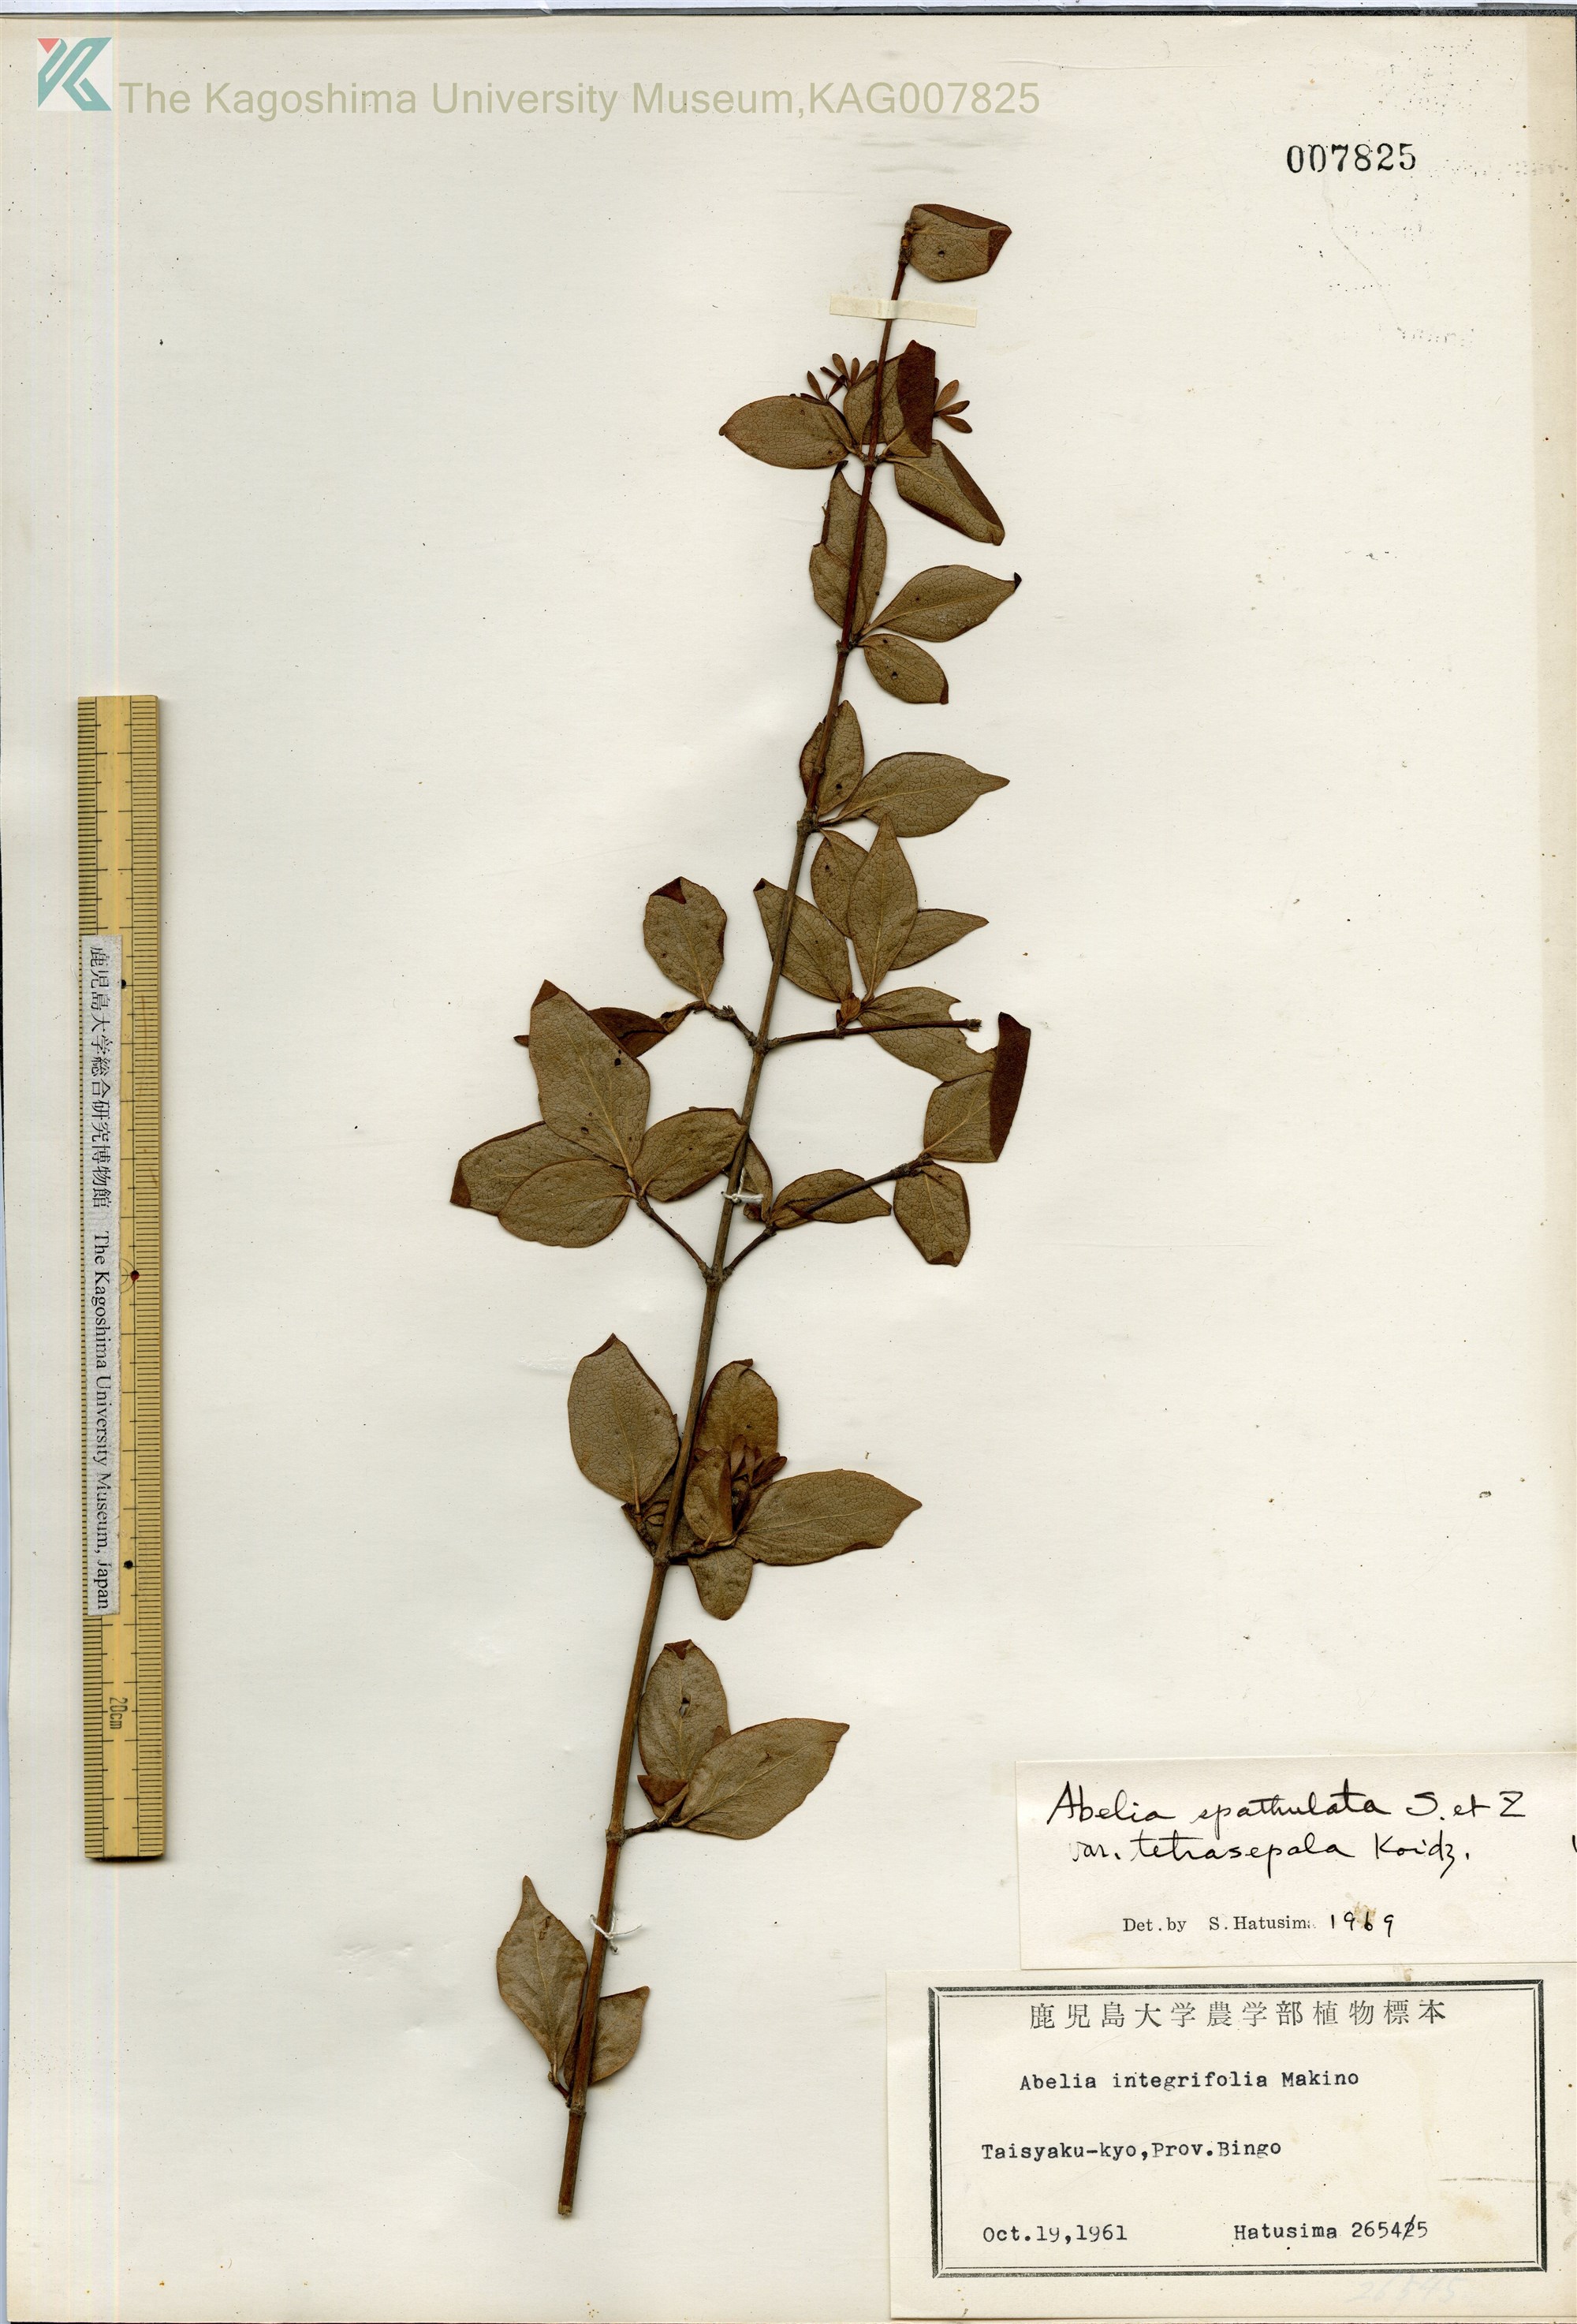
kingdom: Plantae
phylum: Tracheophyta
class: Magnoliopsida
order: Dipsacales
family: Caprifoliaceae
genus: Diabelia
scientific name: Diabelia ionostachya
